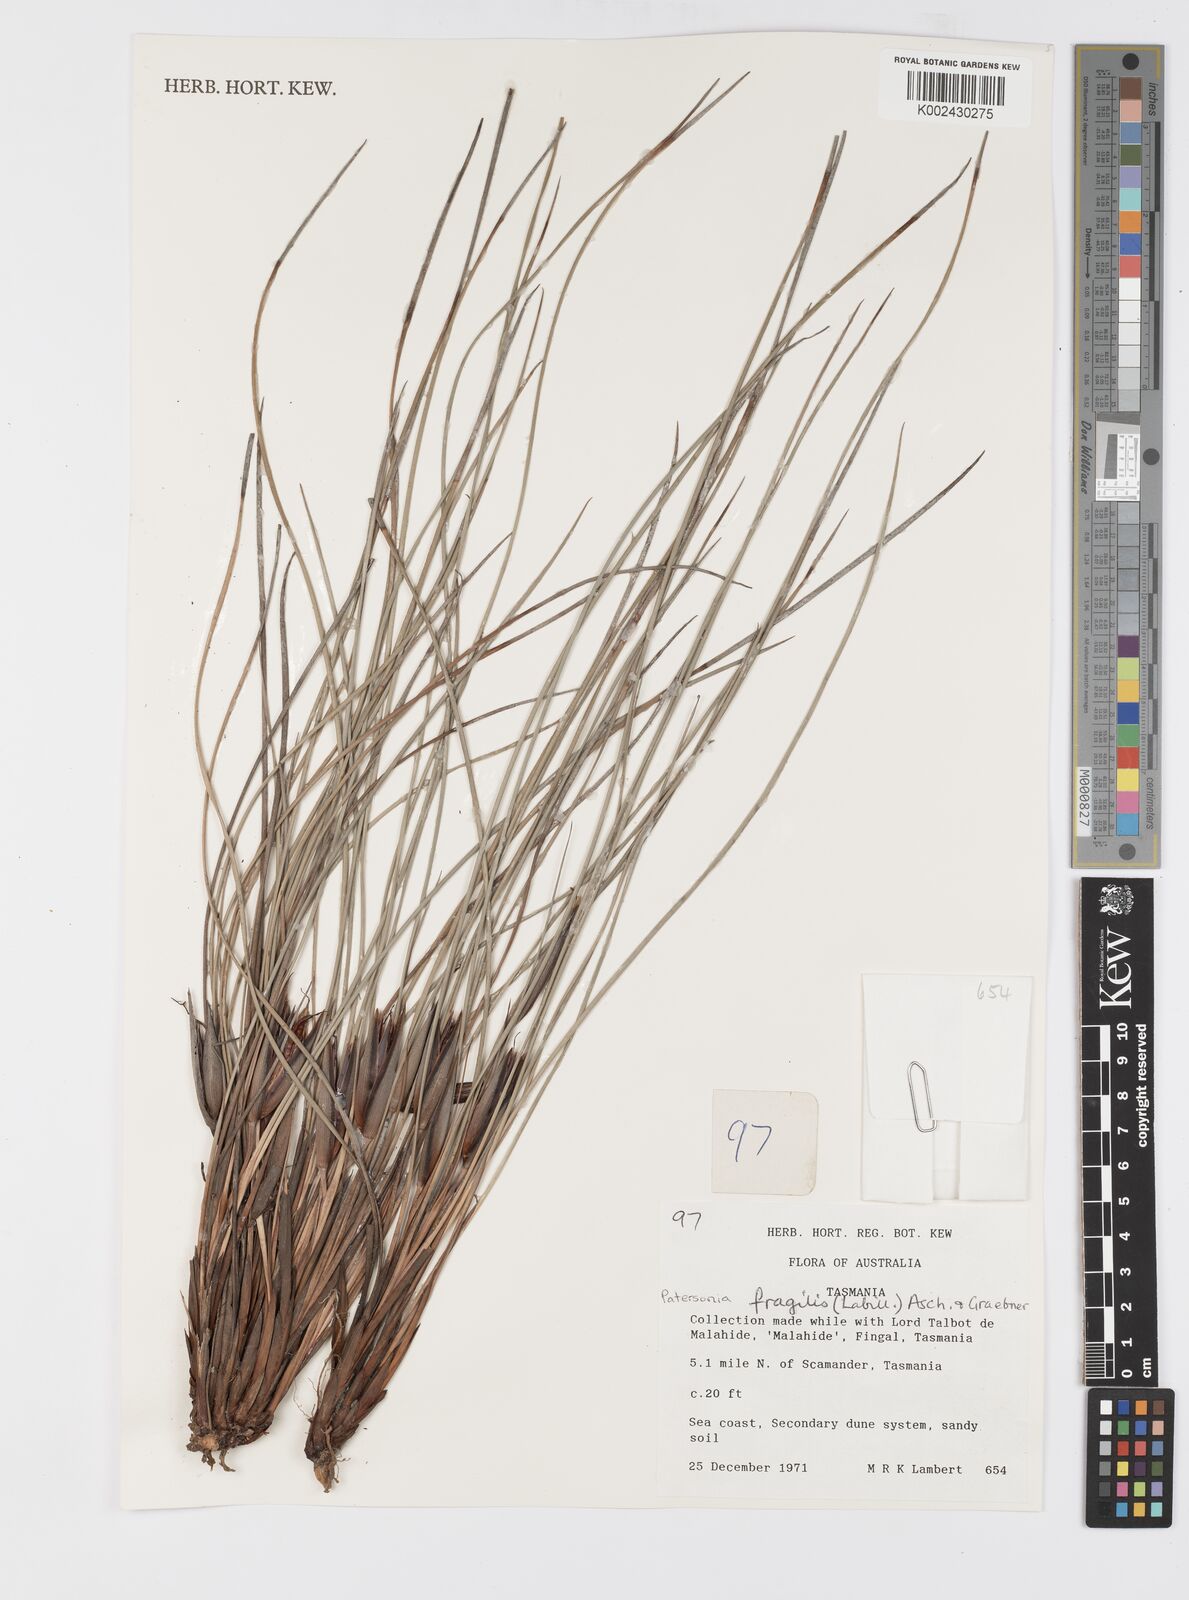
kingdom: Plantae
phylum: Tracheophyta
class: Liliopsida
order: Asparagales
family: Iridaceae
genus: Patersonia
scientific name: Patersonia fragilis
